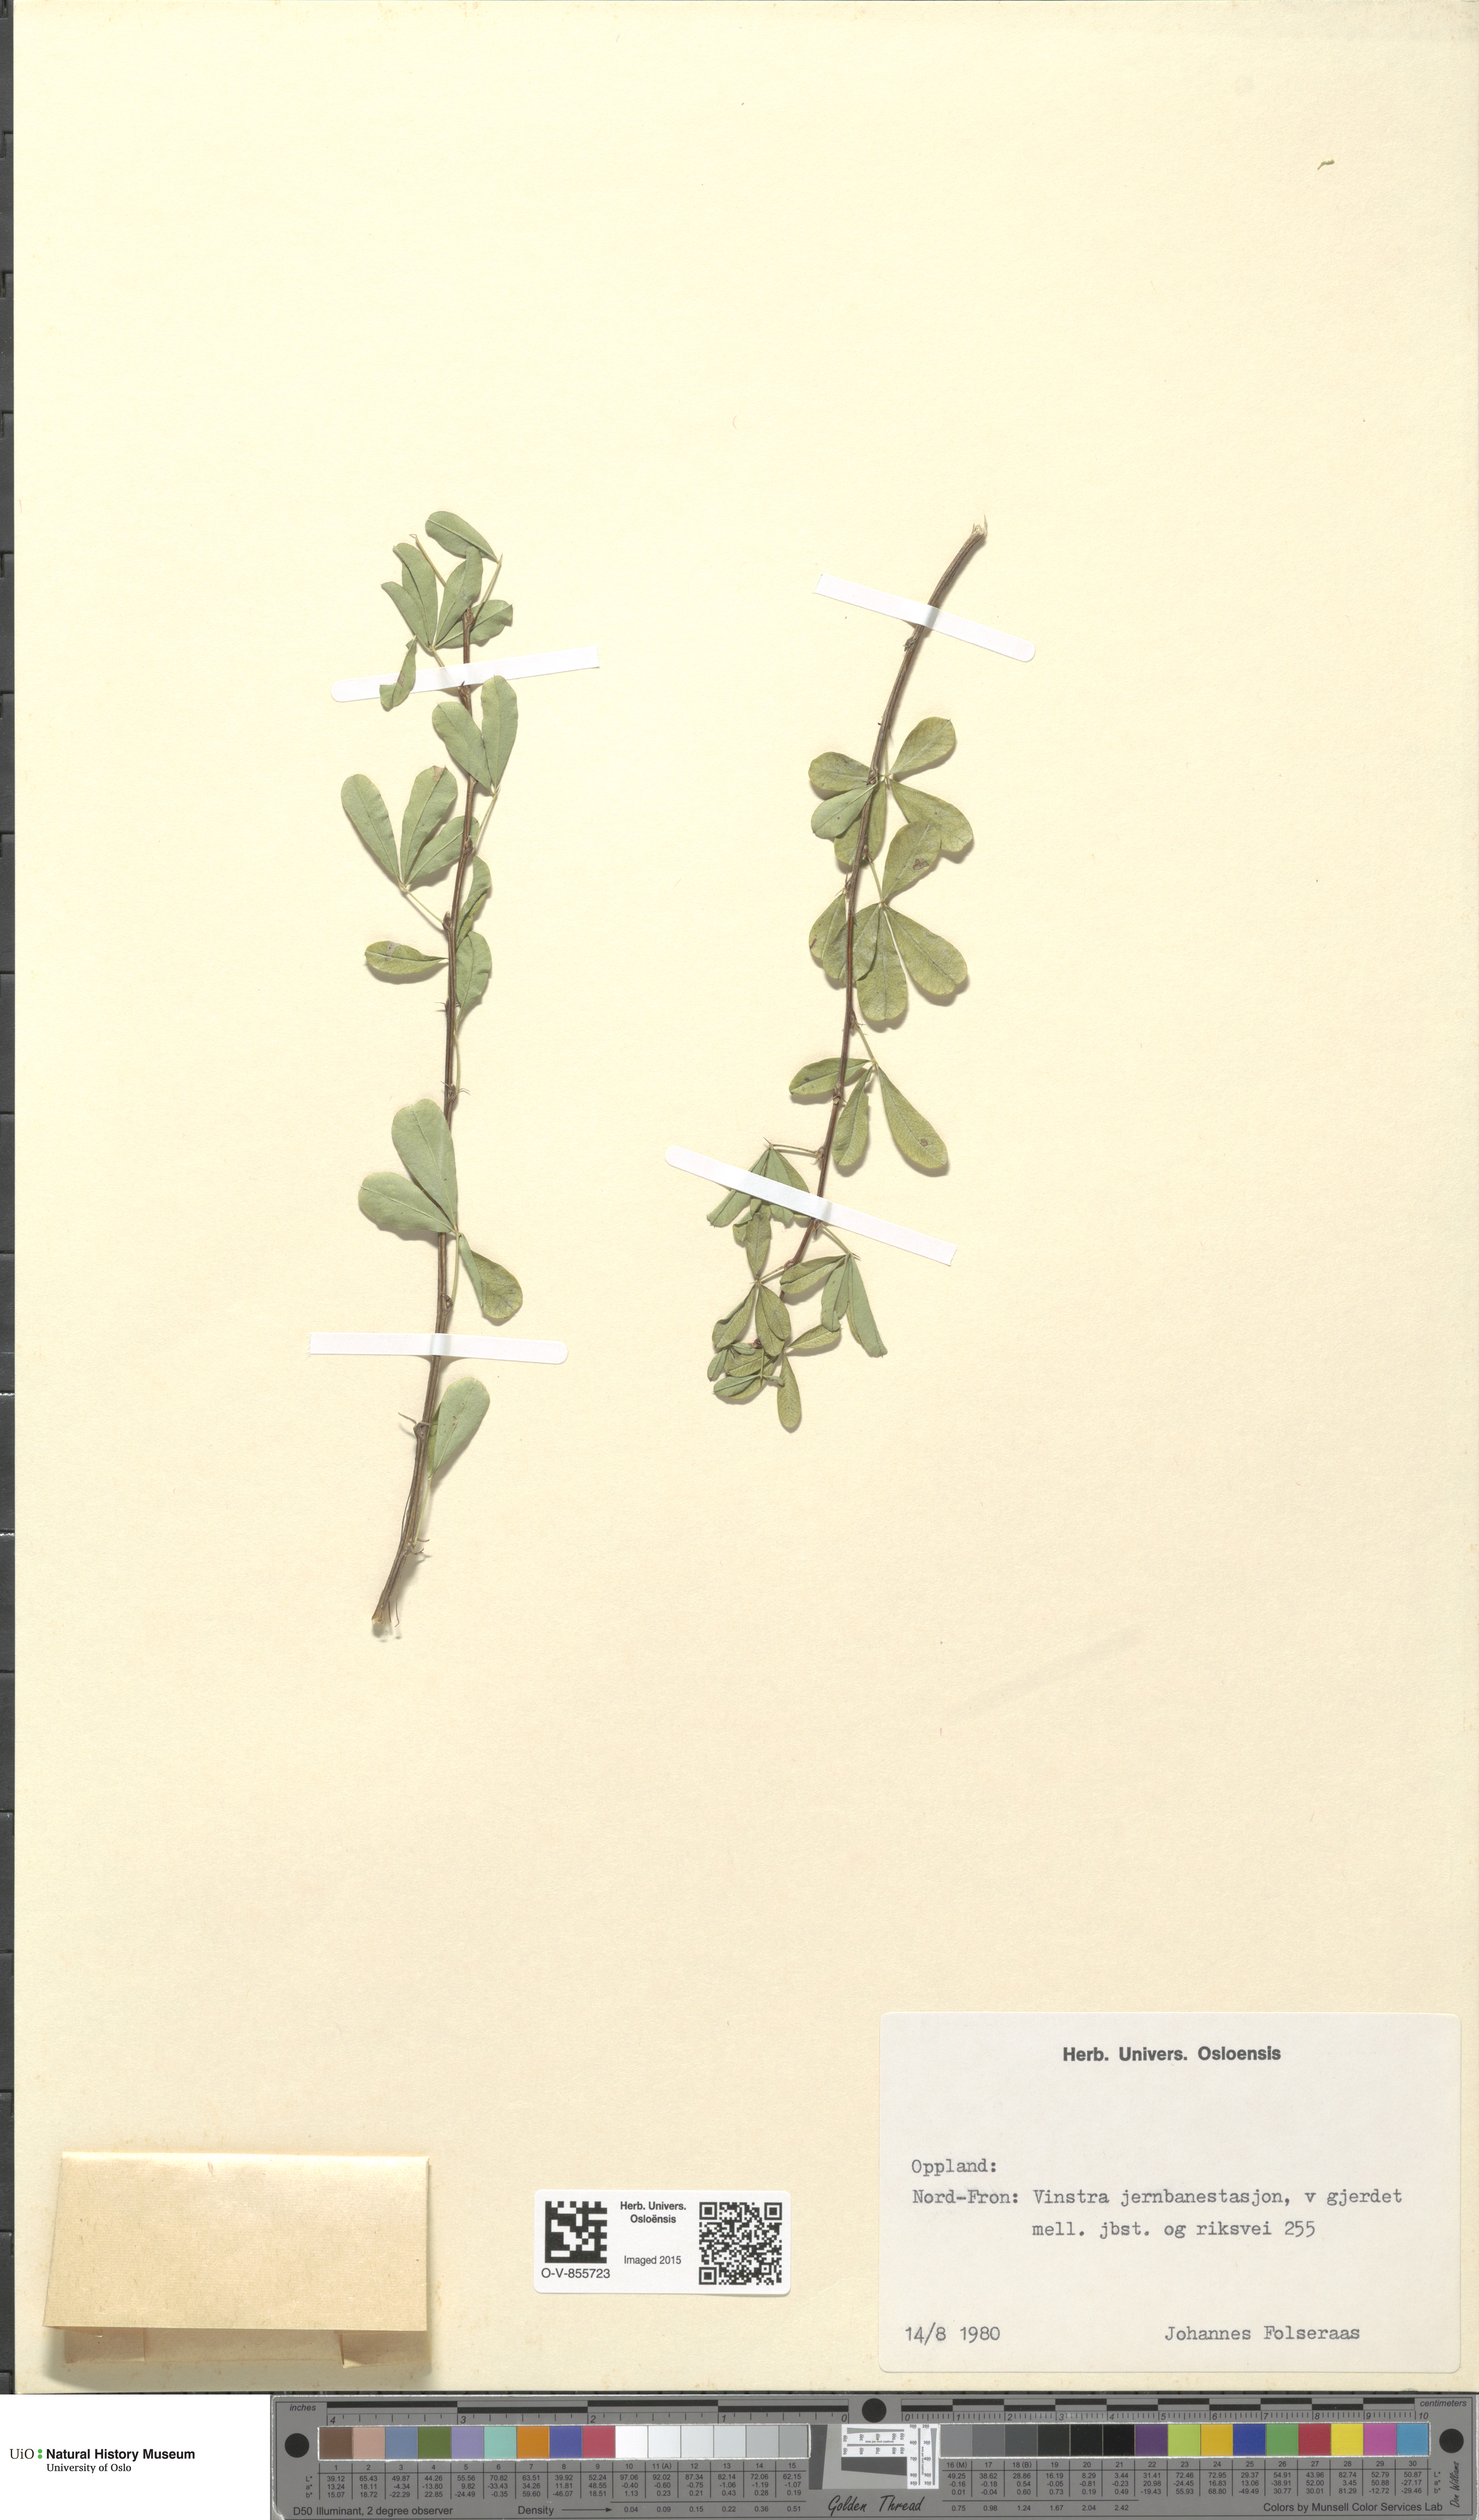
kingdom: Plantae
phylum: Tracheophyta
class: Magnoliopsida
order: Fabales
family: Fabaceae
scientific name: Fabaceae
